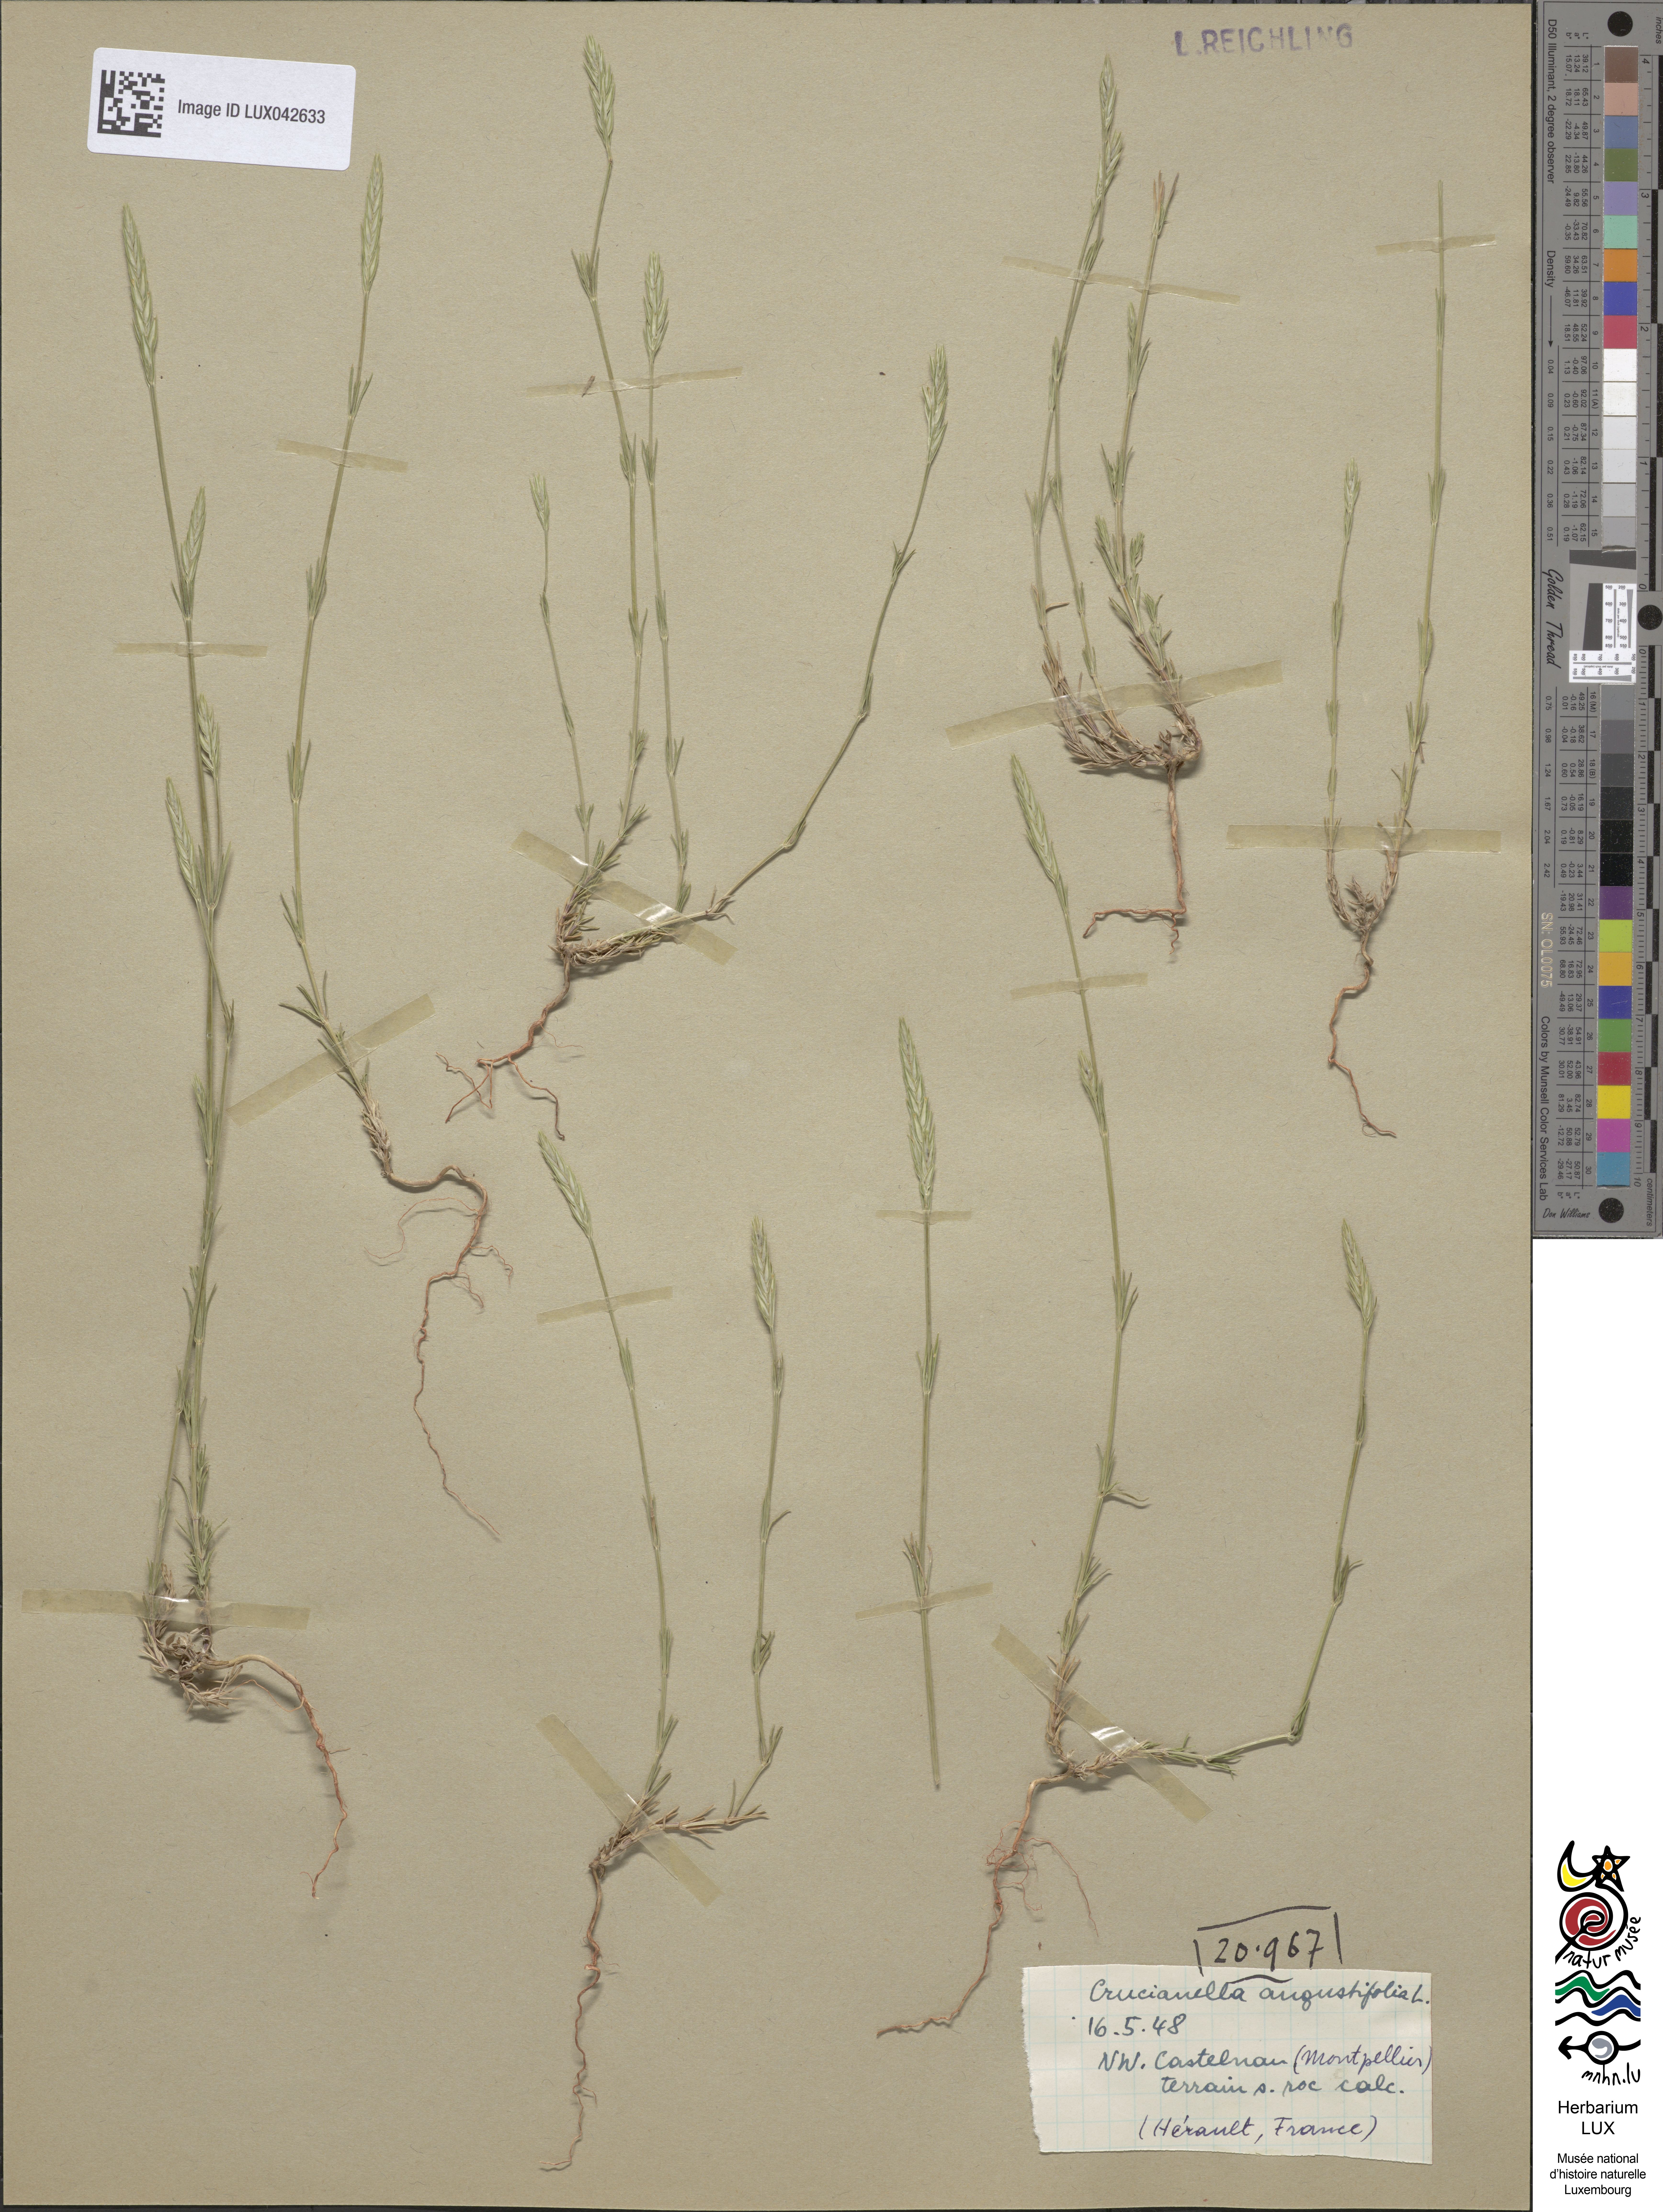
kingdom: Plantae
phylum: Tracheophyta
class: Magnoliopsida
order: Gentianales
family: Rubiaceae
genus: Crucianella
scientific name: Crucianella angustifolia
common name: Narrowleaf crucianella
